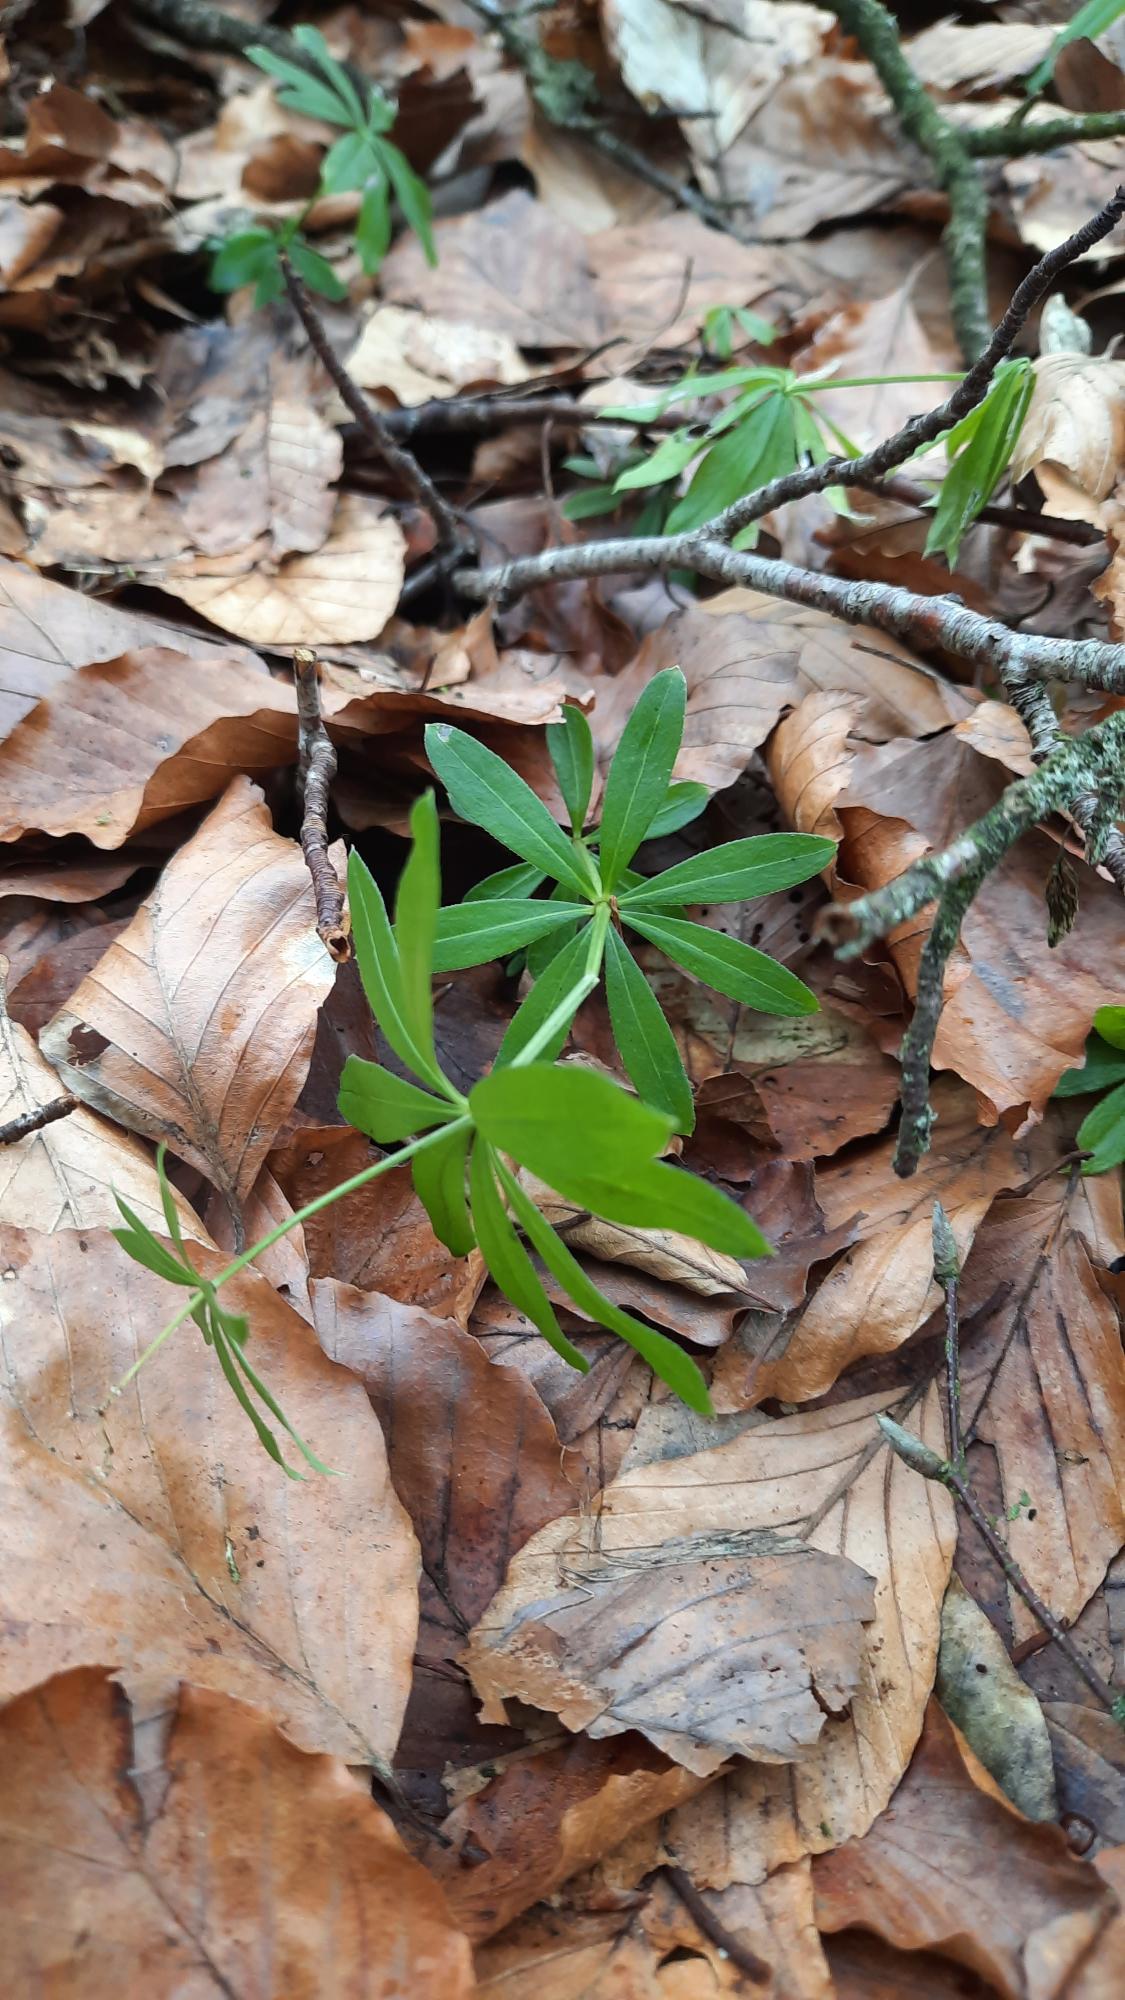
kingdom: Plantae
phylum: Tracheophyta
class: Magnoliopsida
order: Gentianales
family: Rubiaceae
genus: Galium
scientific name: Galium odoratum
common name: Skovmærke
